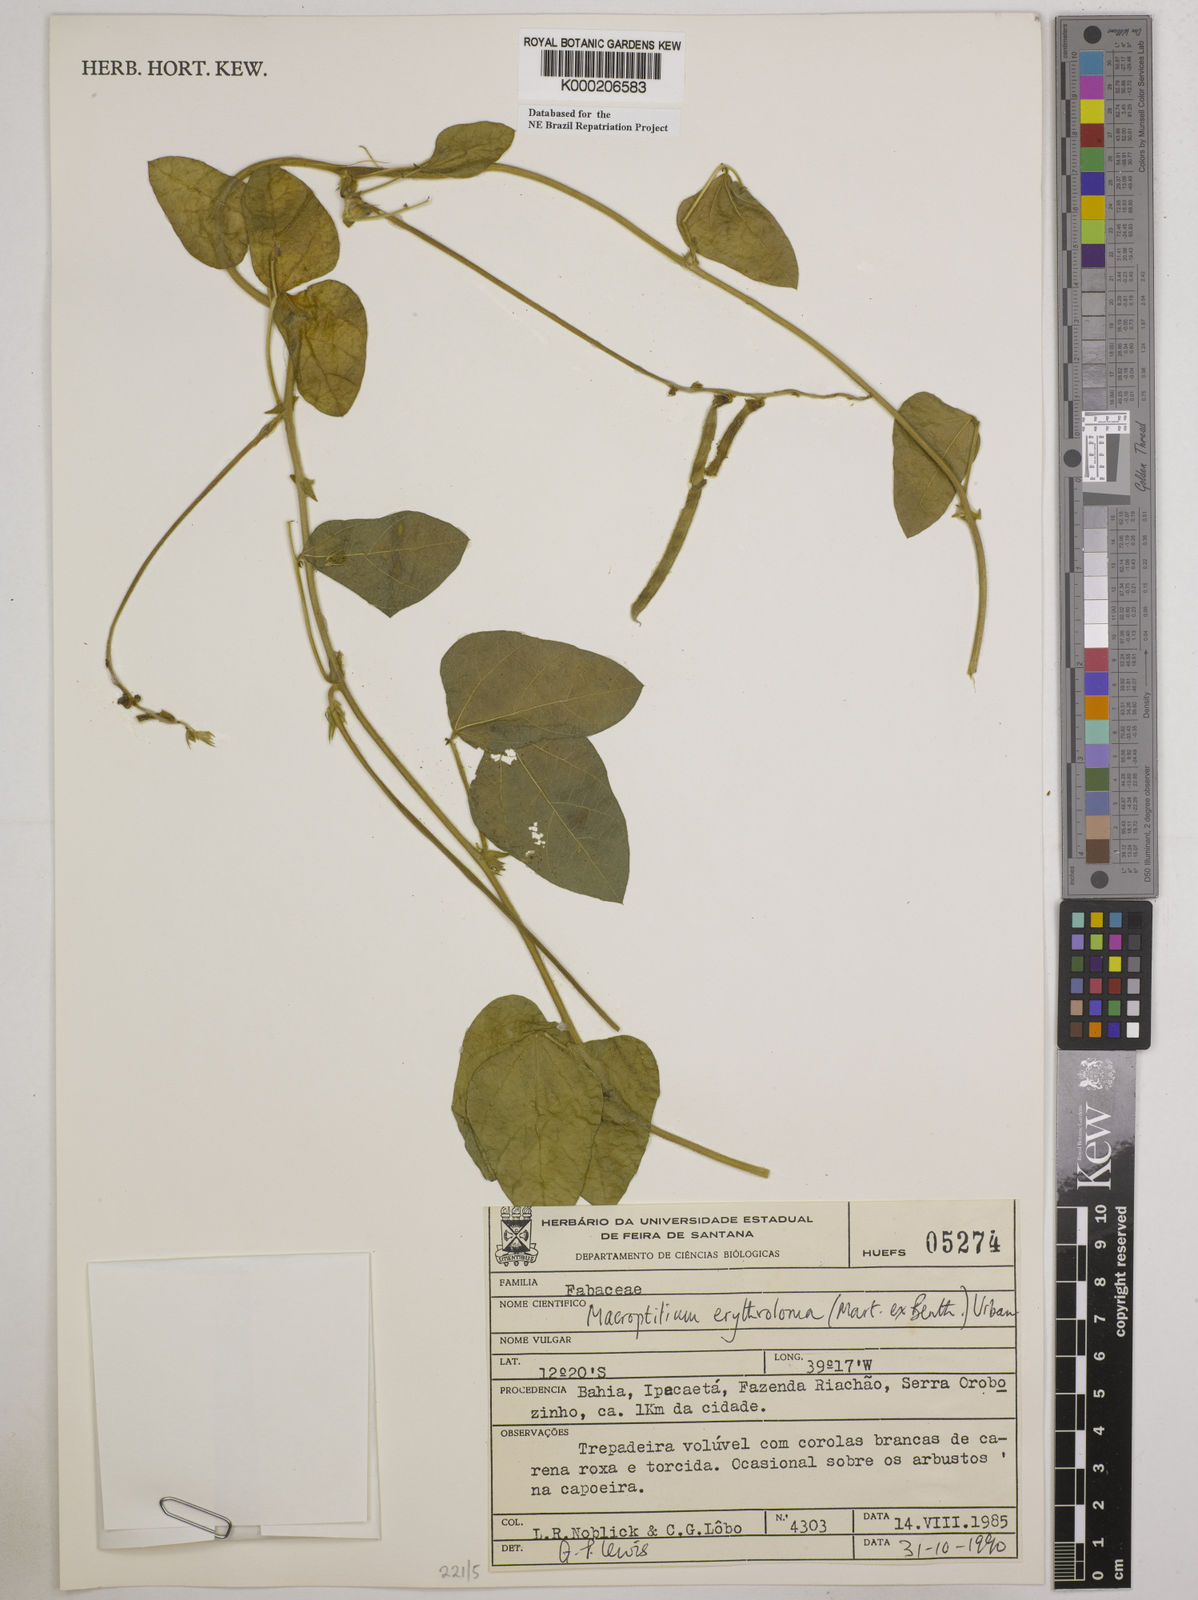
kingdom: Plantae
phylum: Tracheophyta
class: Magnoliopsida
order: Fabales
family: Fabaceae
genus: Macroptilium
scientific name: Macroptilium erythroloma
